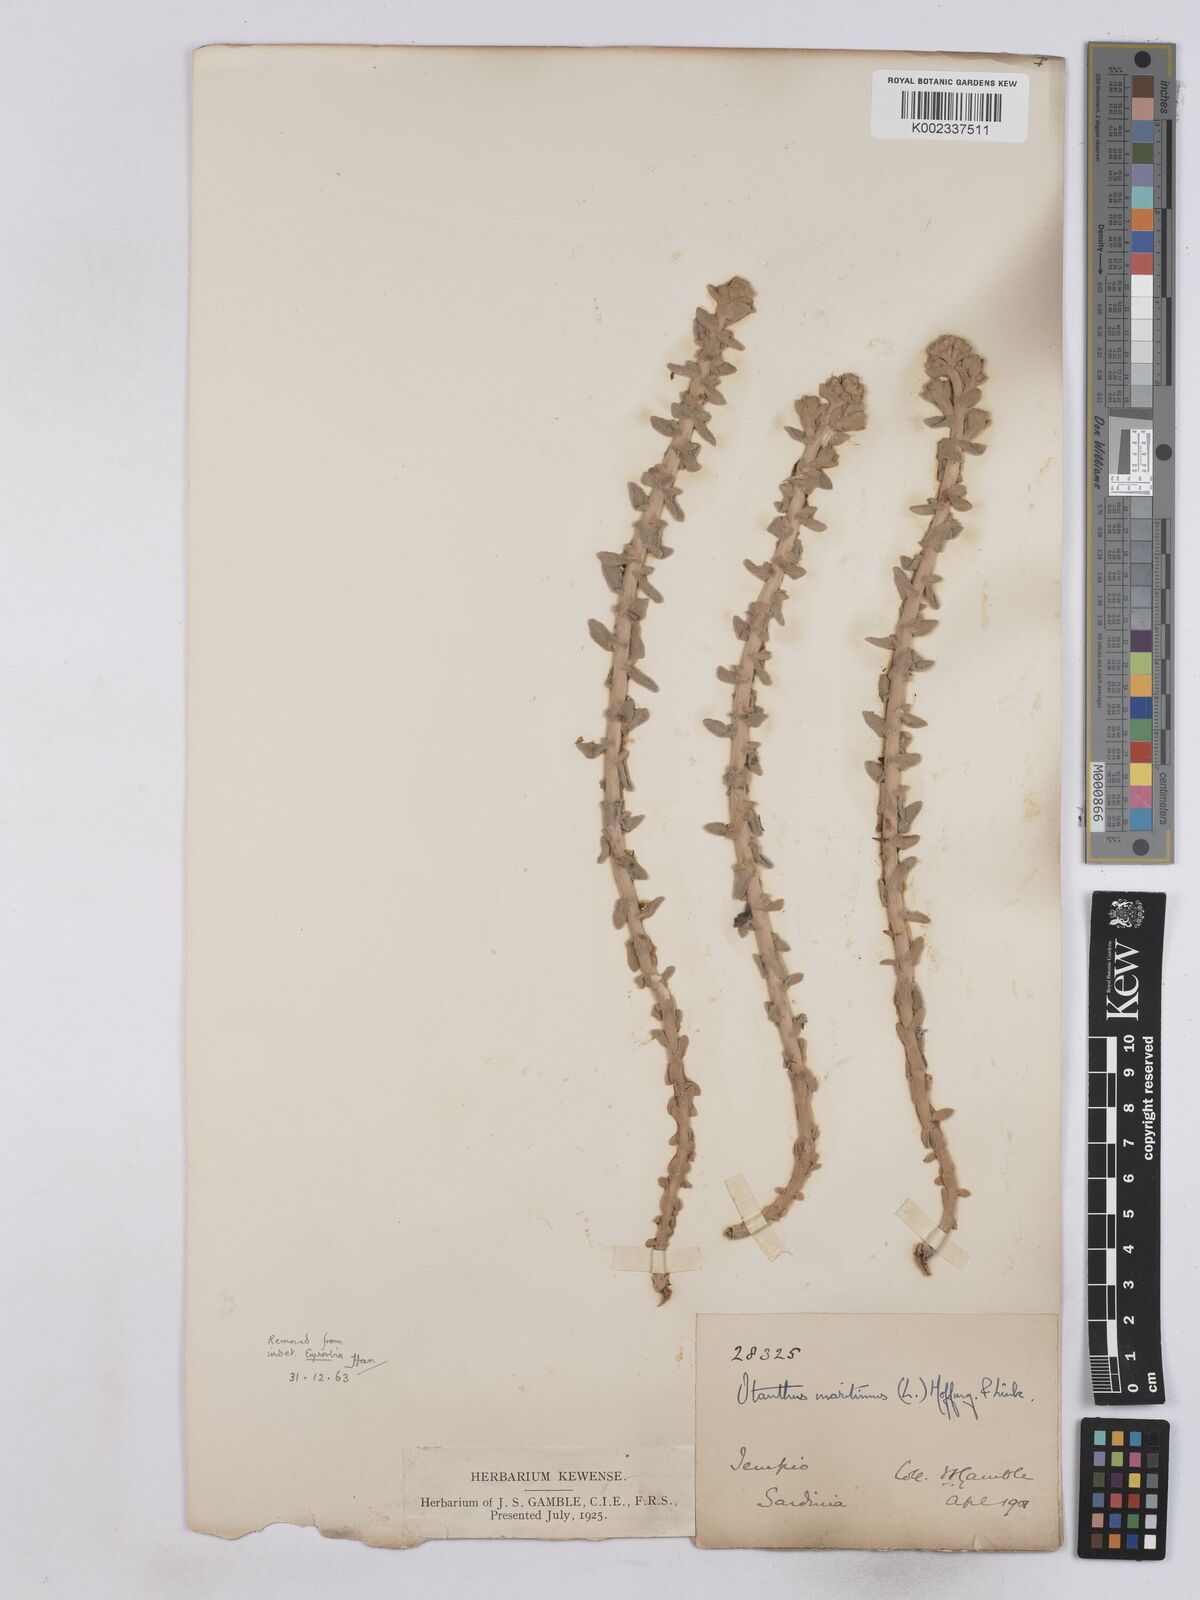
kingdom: Plantae
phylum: Tracheophyta
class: Magnoliopsida
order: Asterales
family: Asteraceae
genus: Achillea
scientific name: Achillea maritima
